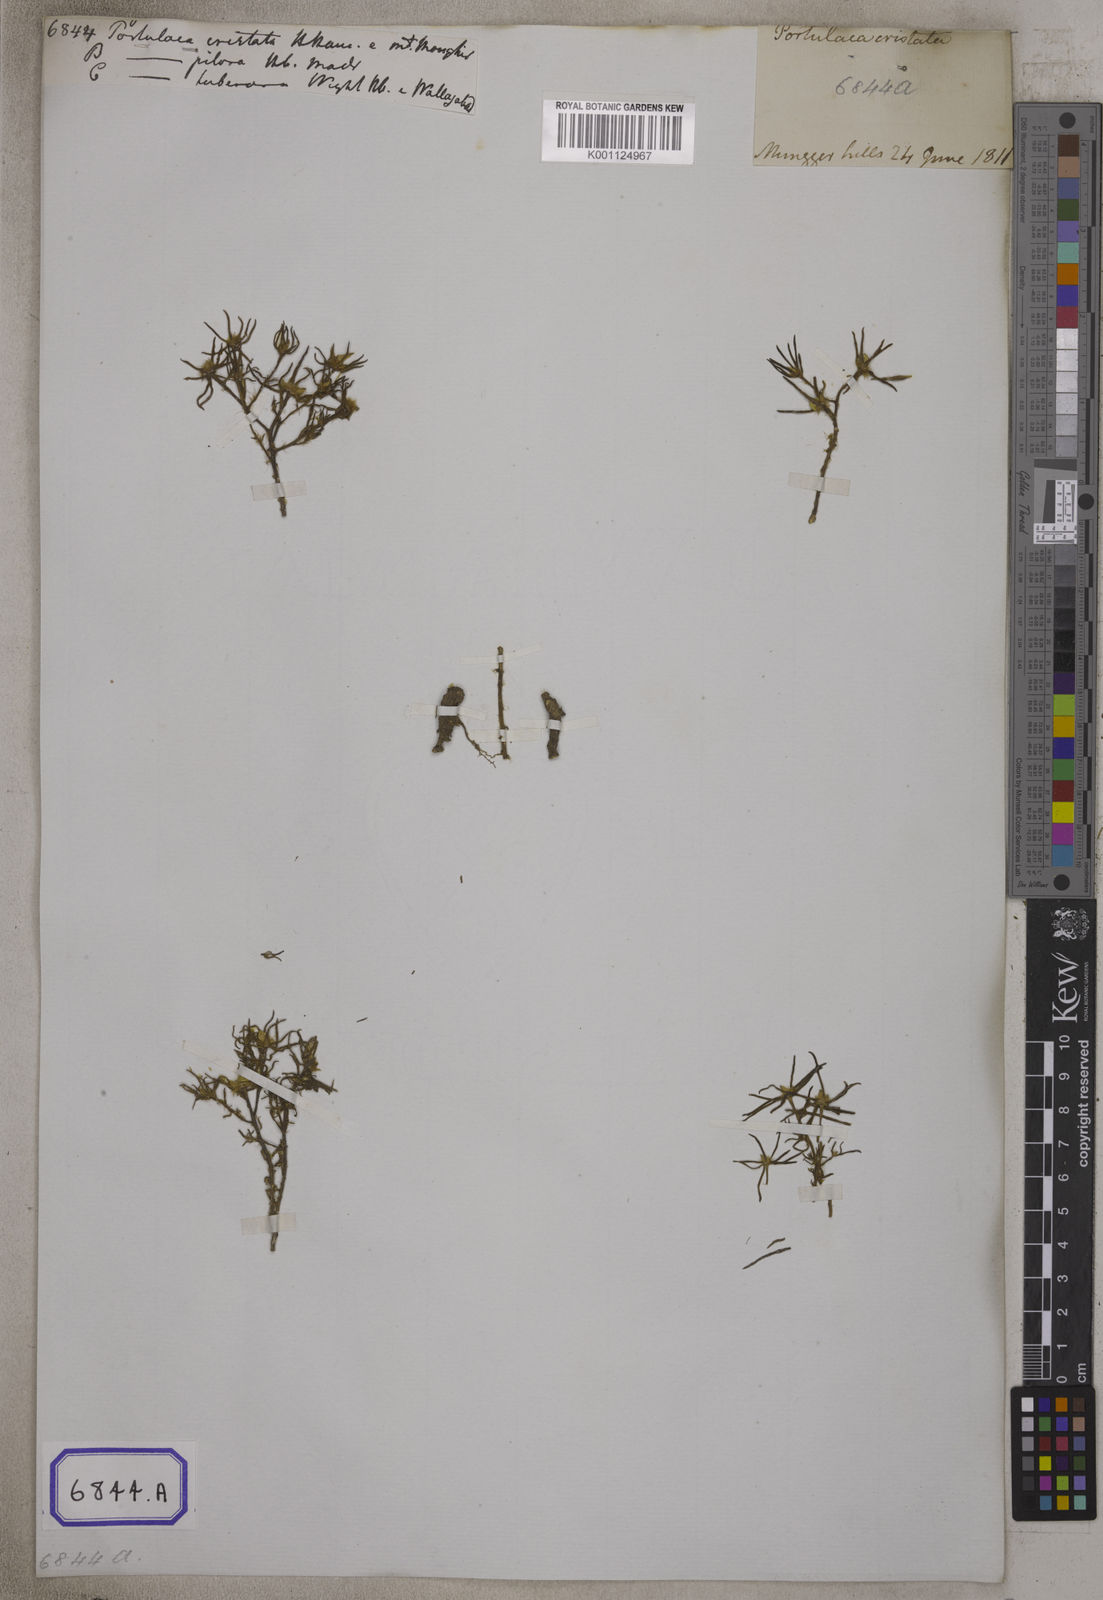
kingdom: Plantae
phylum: Tracheophyta
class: Magnoliopsida
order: Caryophyllales
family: Portulacaceae
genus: Portulaca
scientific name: Portulaca tuberosa
